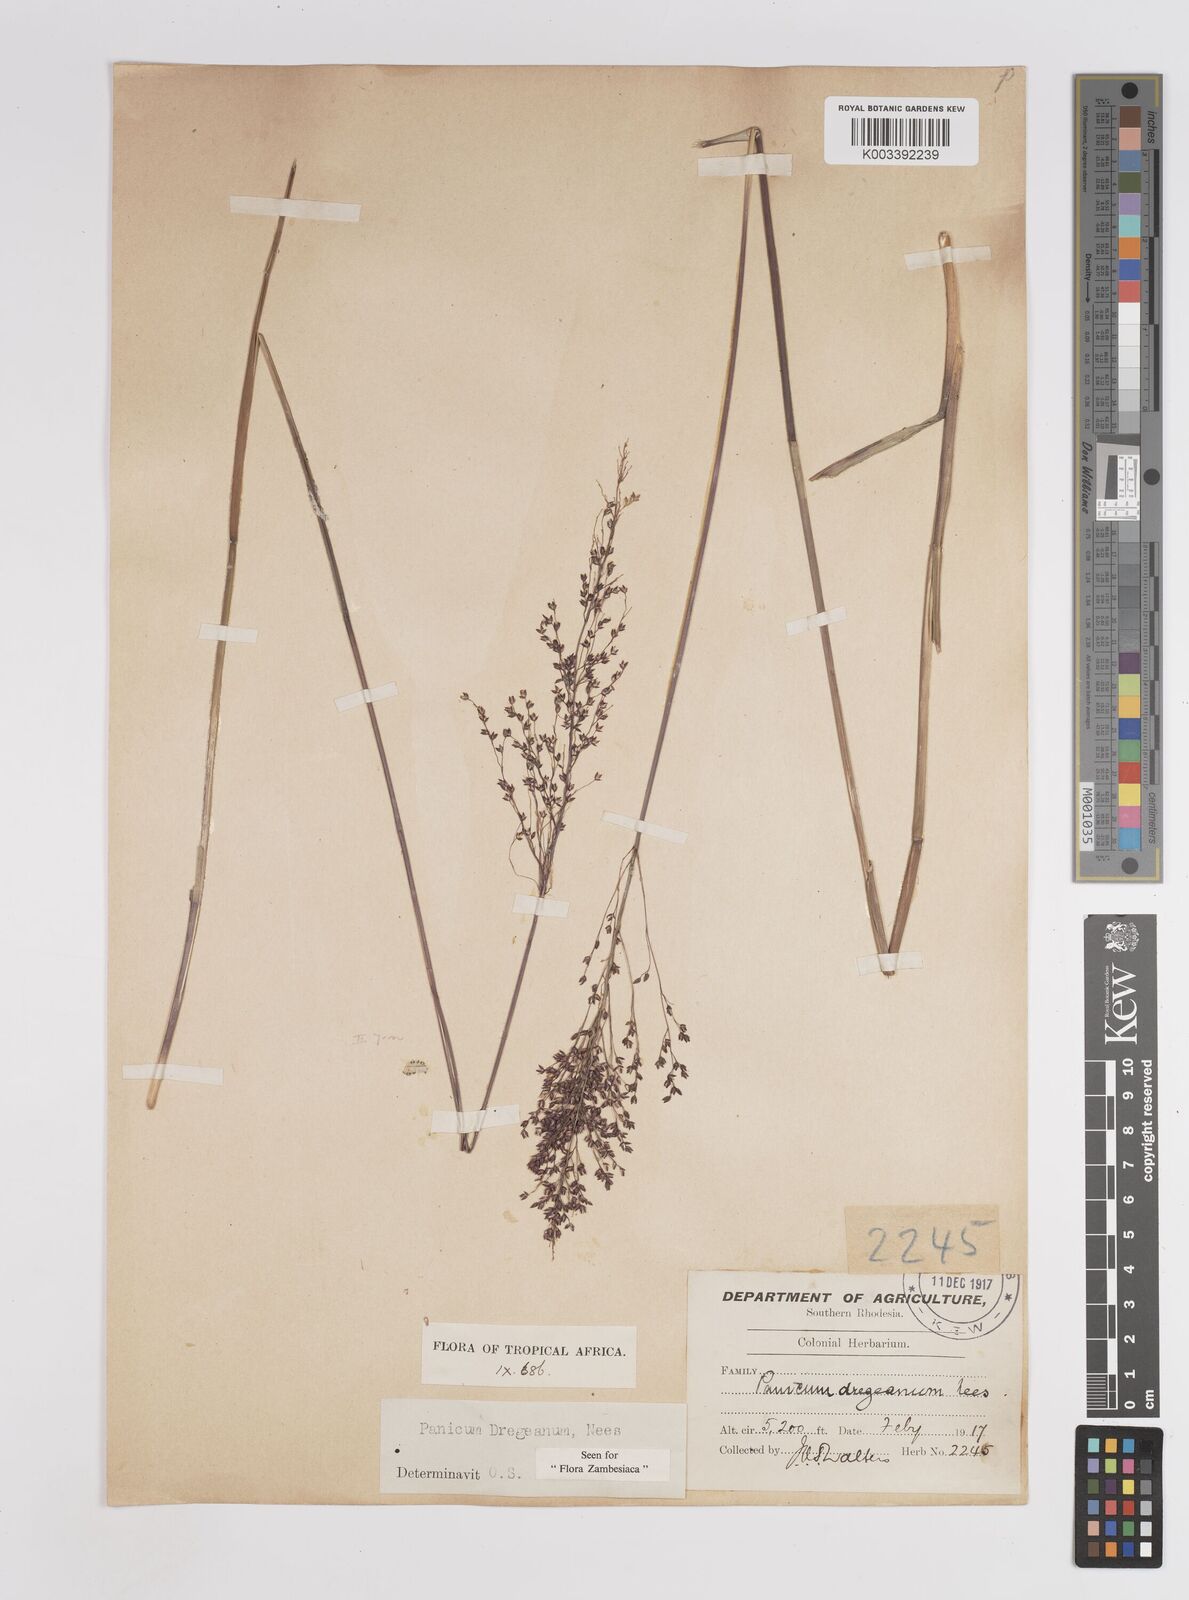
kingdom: Plantae
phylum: Tracheophyta
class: Liliopsida
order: Poales
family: Poaceae
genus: Panicum
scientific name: Panicum dregeanum
